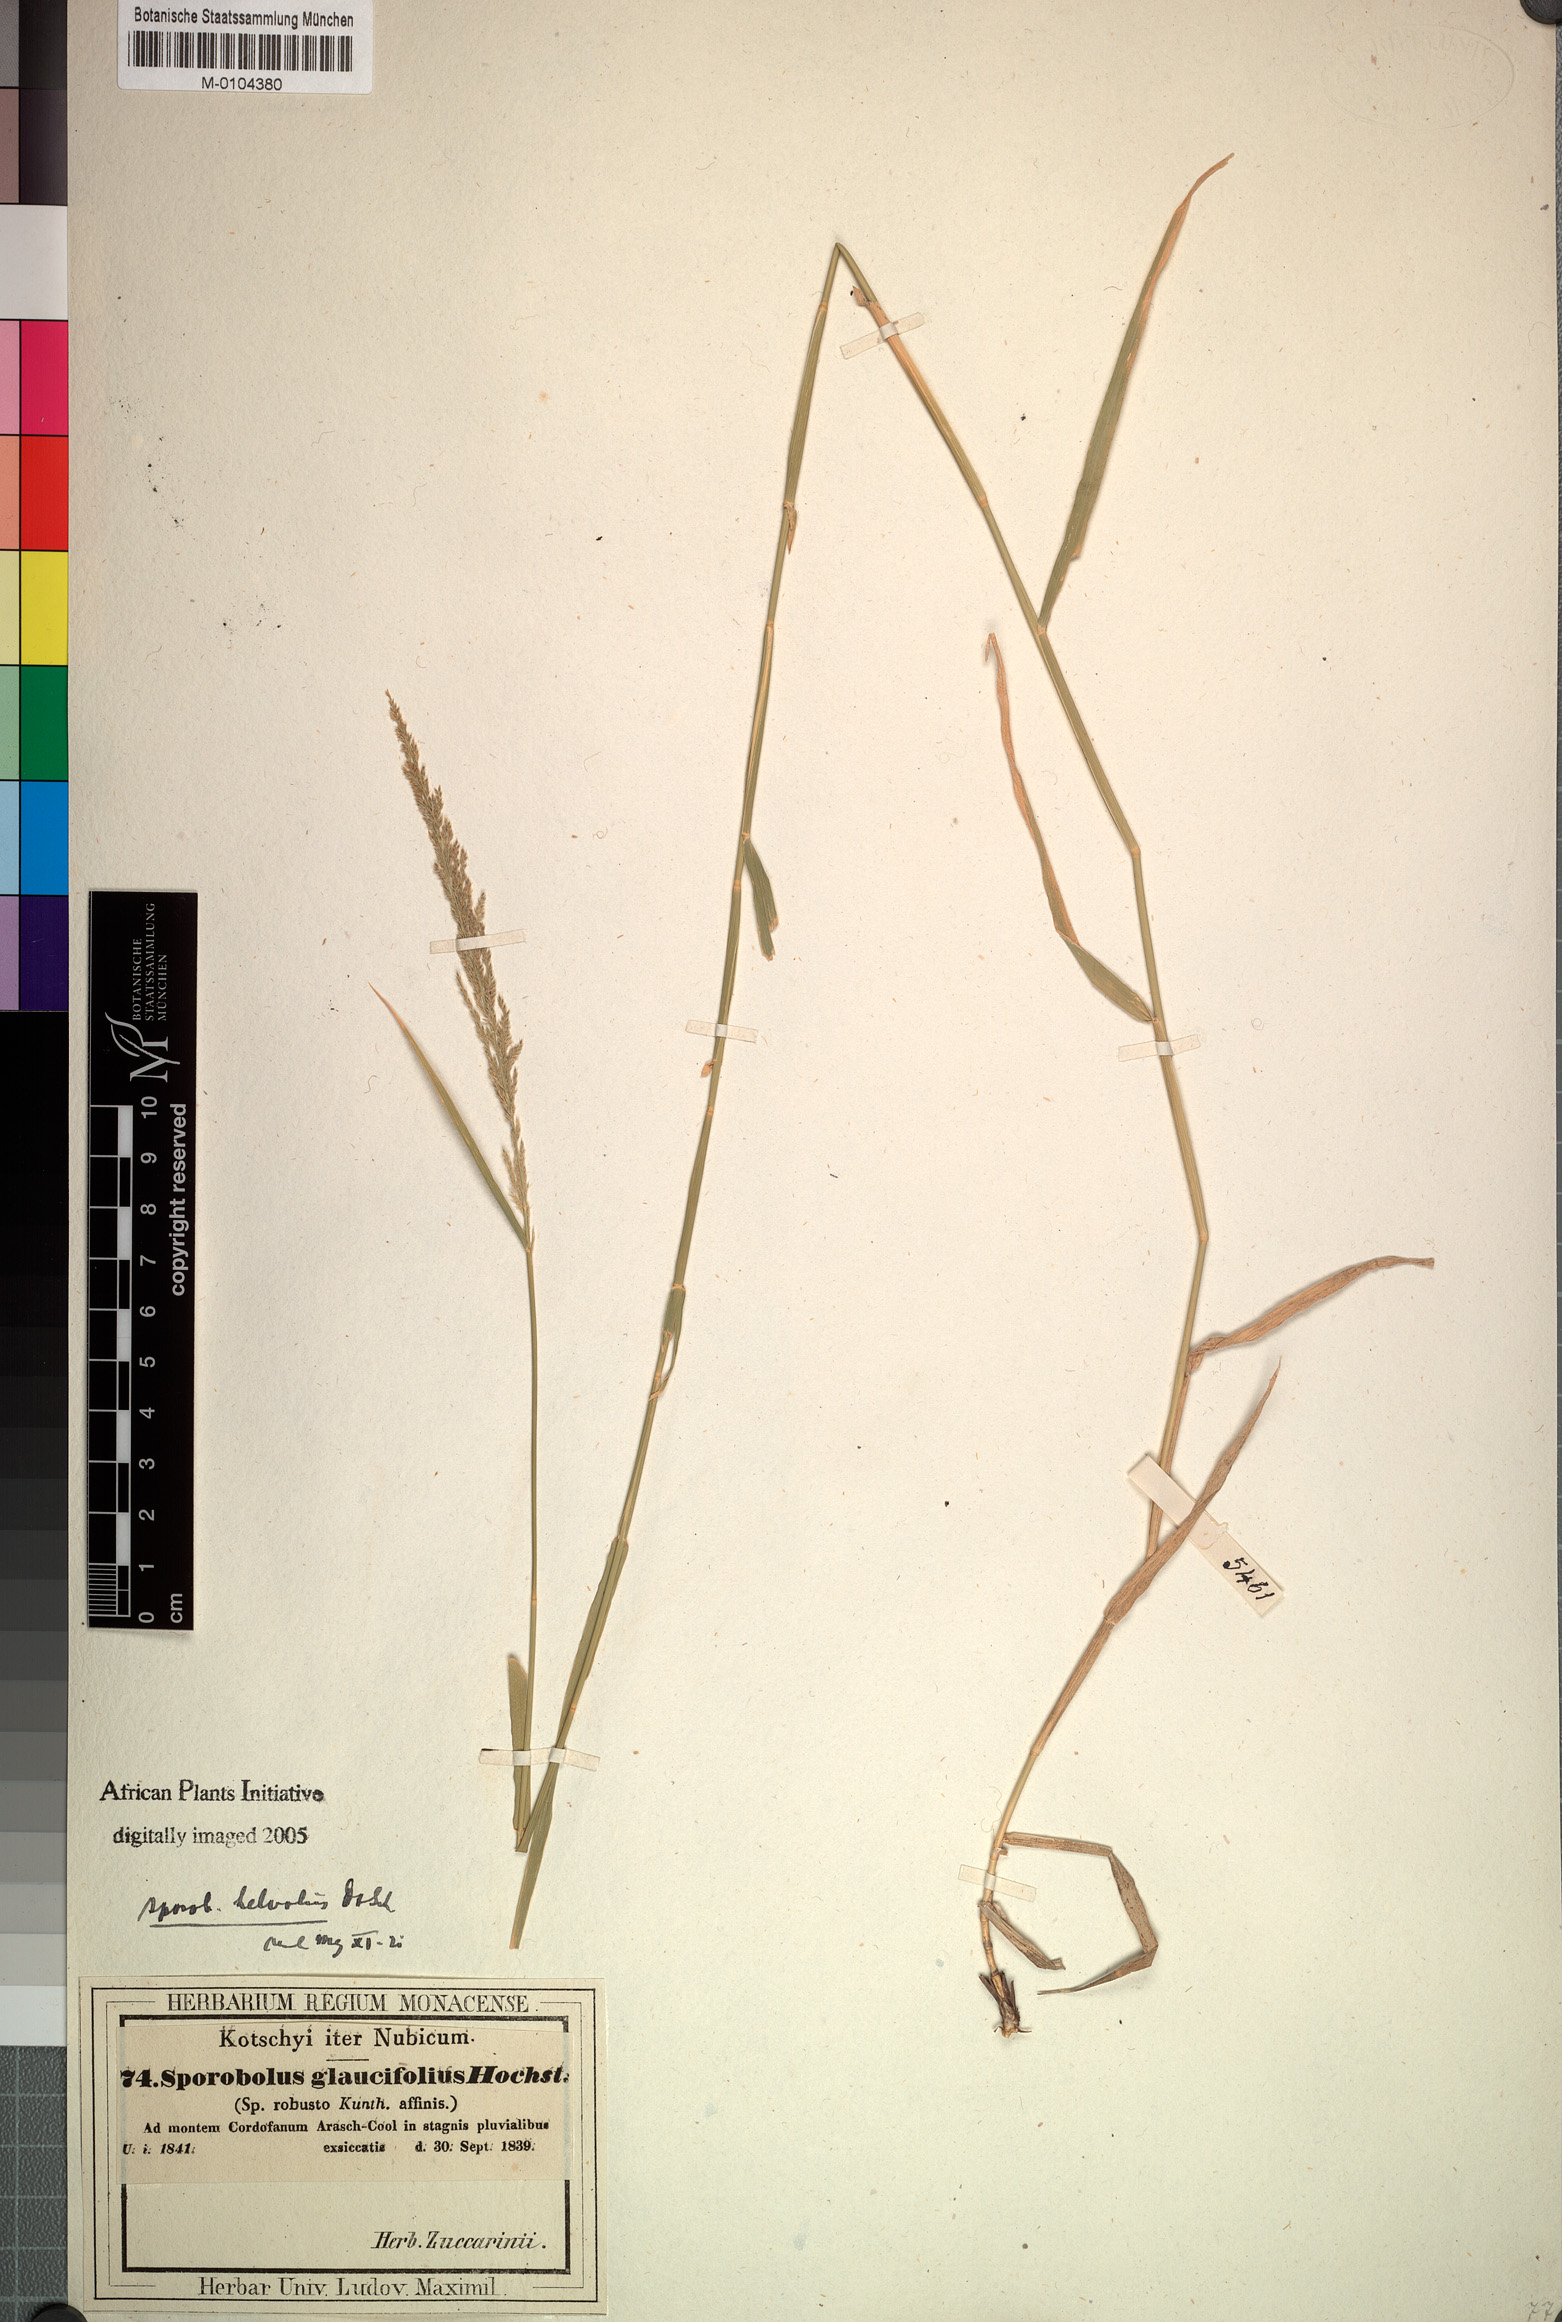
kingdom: Plantae
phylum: Tracheophyta
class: Liliopsida
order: Poales
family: Poaceae
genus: Sporobolus
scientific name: Sporobolus helvolus
